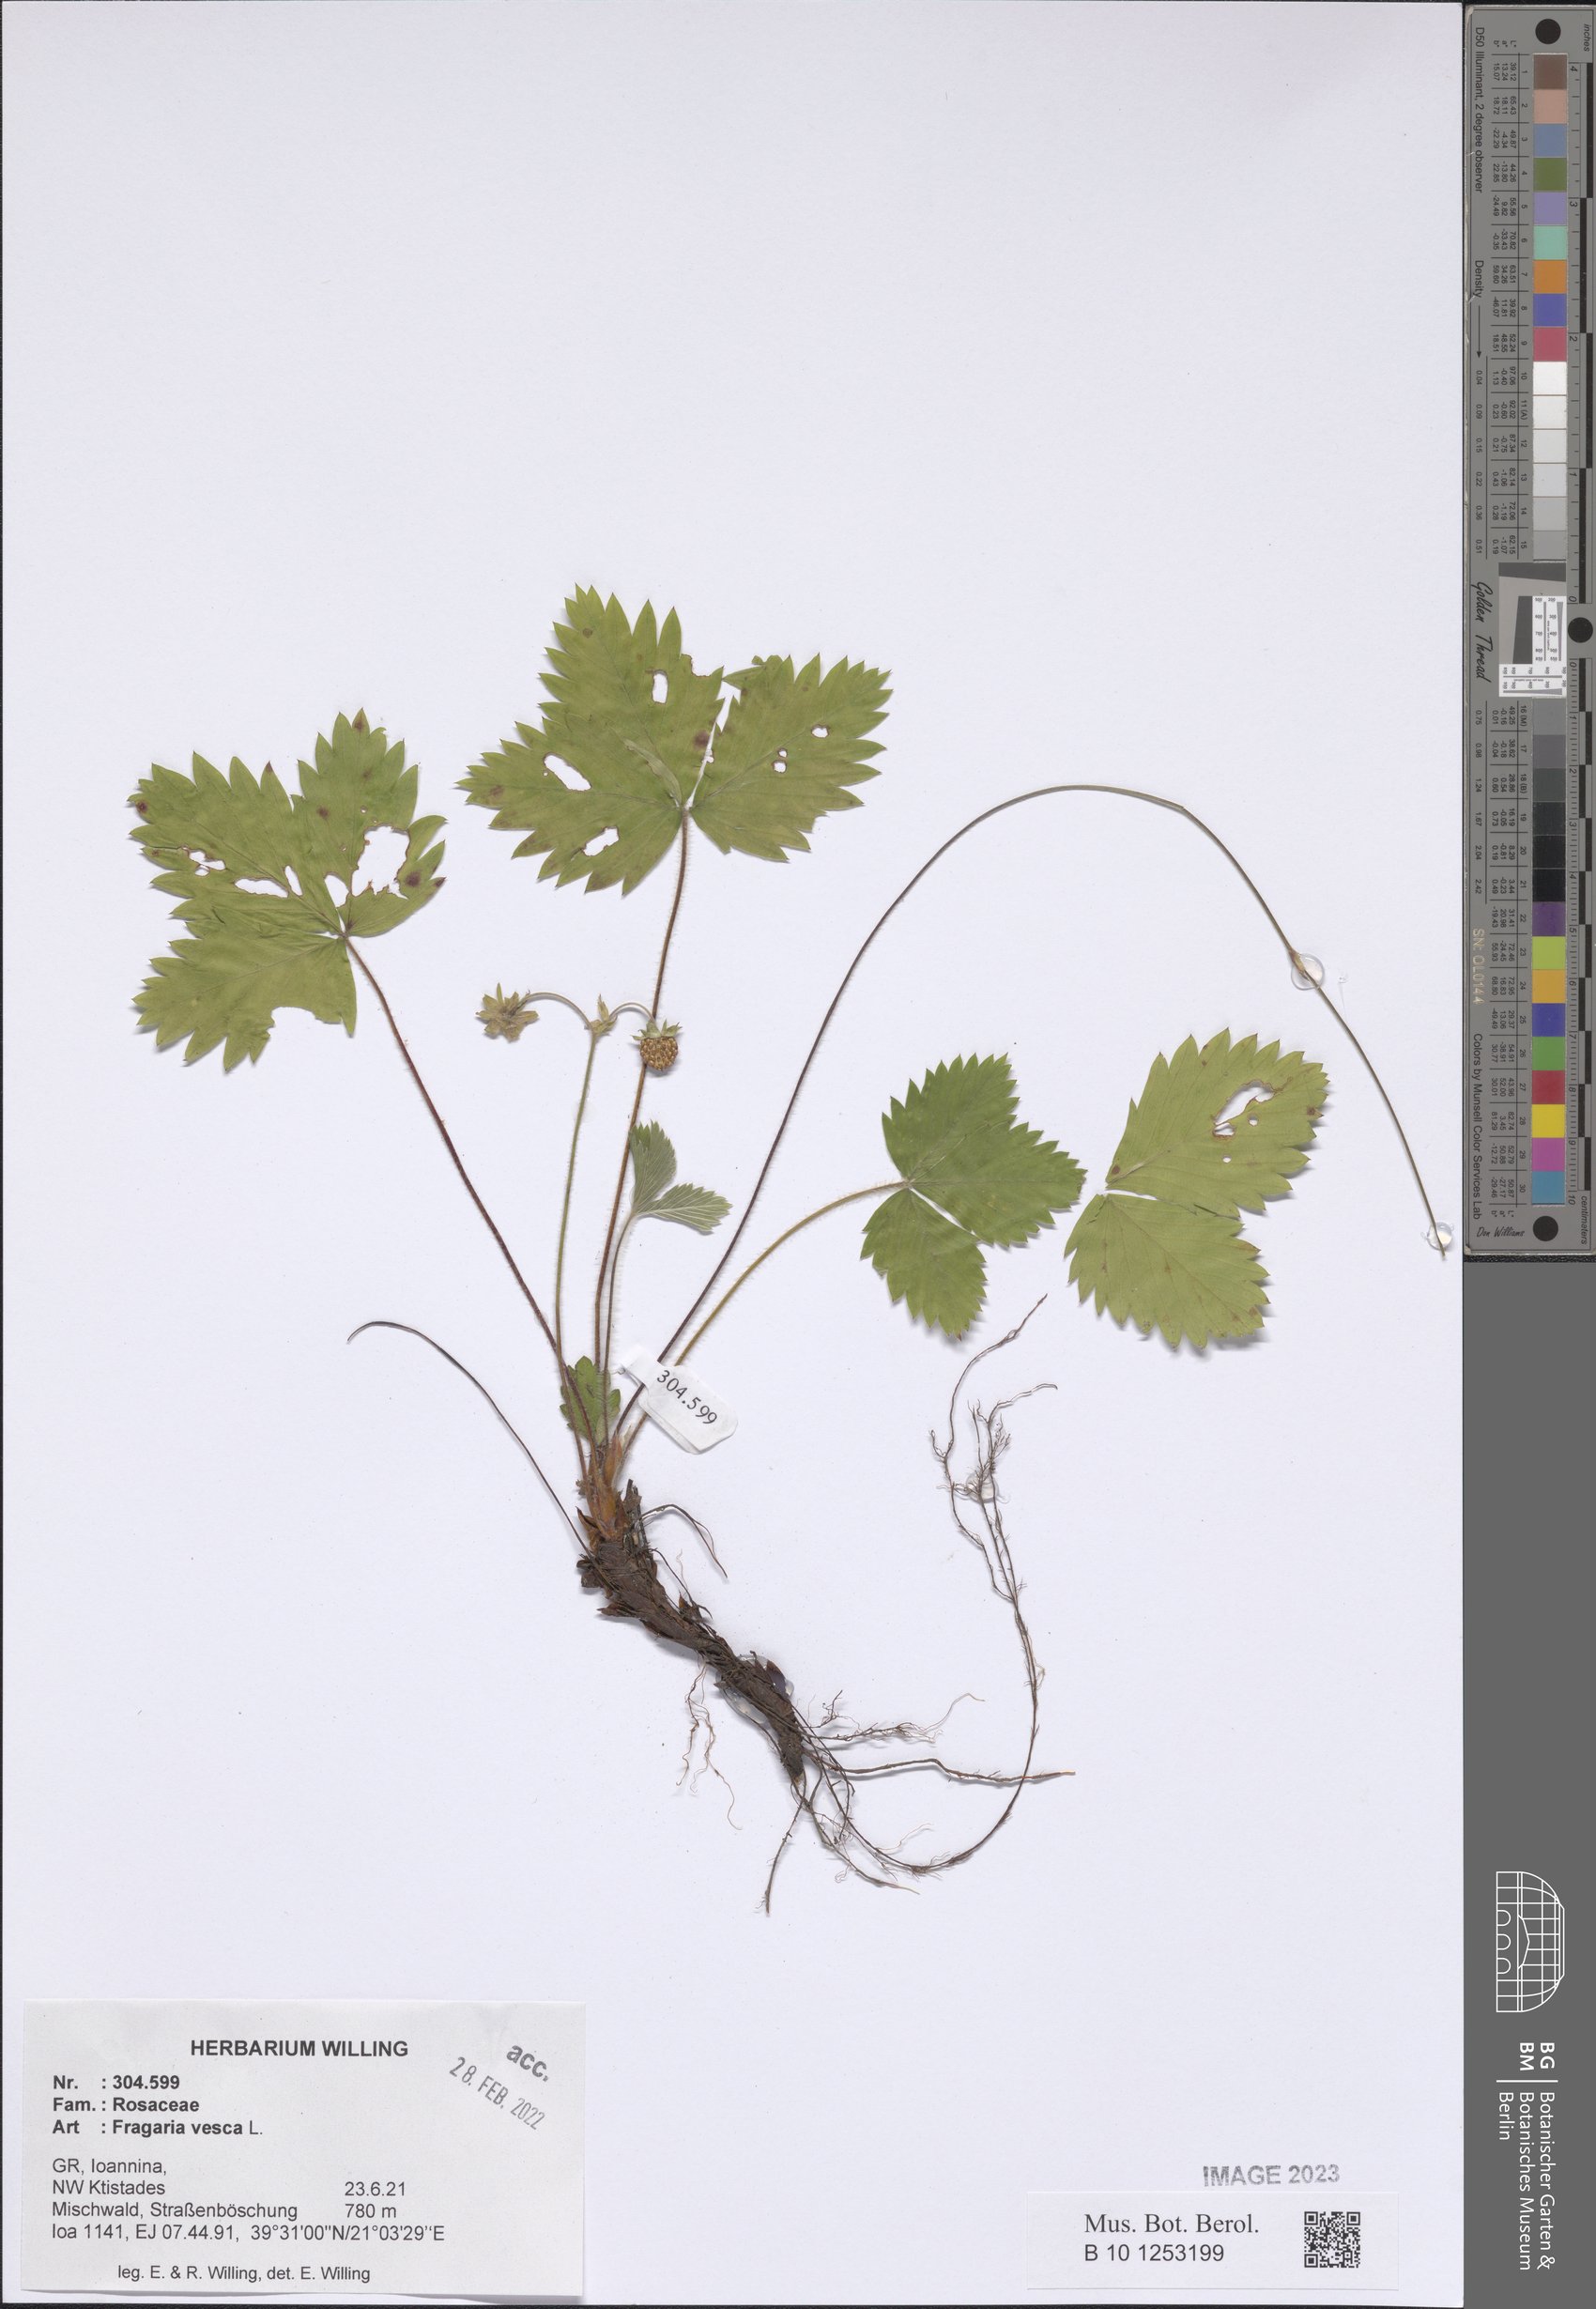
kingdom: Plantae
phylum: Tracheophyta
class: Magnoliopsida
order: Rosales
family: Rosaceae
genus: Fragaria
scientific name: Fragaria vesca
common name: Wild strawberry
